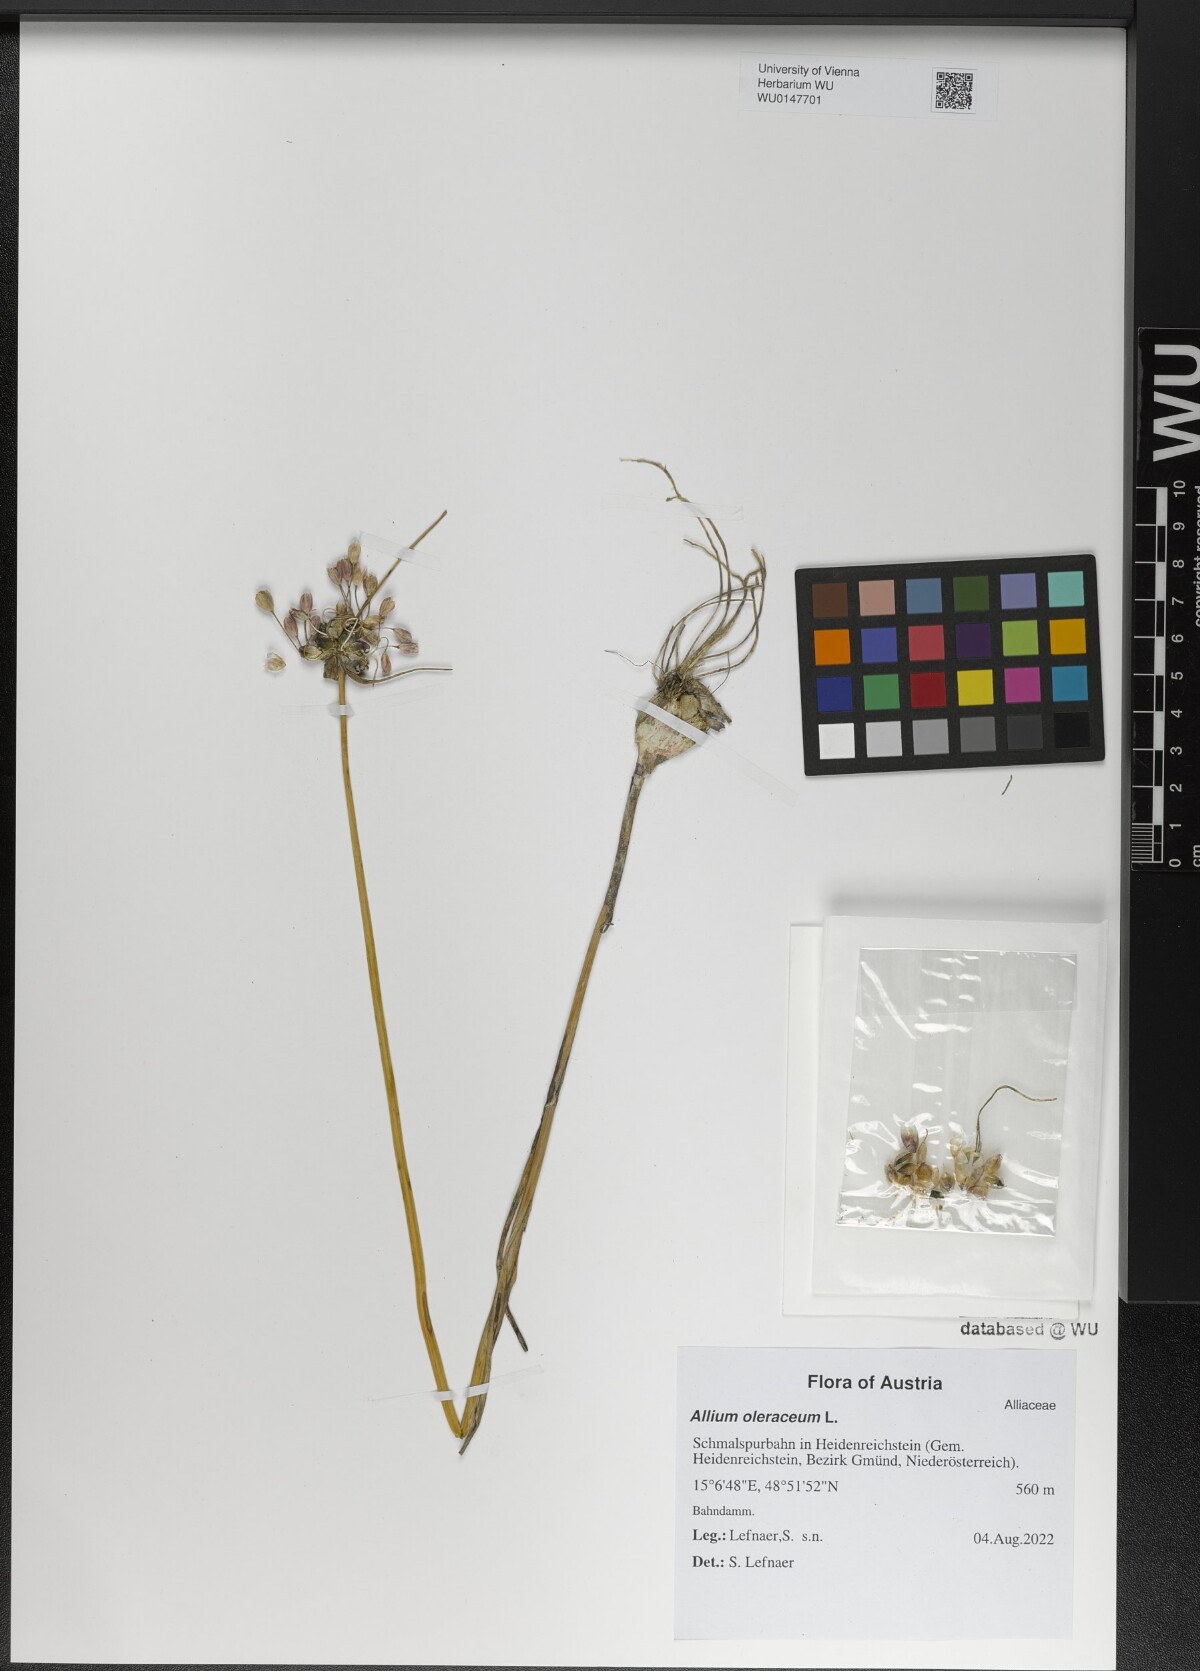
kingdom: Plantae
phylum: Tracheophyta
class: Liliopsida
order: Asparagales
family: Amaryllidaceae
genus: Allium
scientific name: Allium oleraceum
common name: Field garlic
